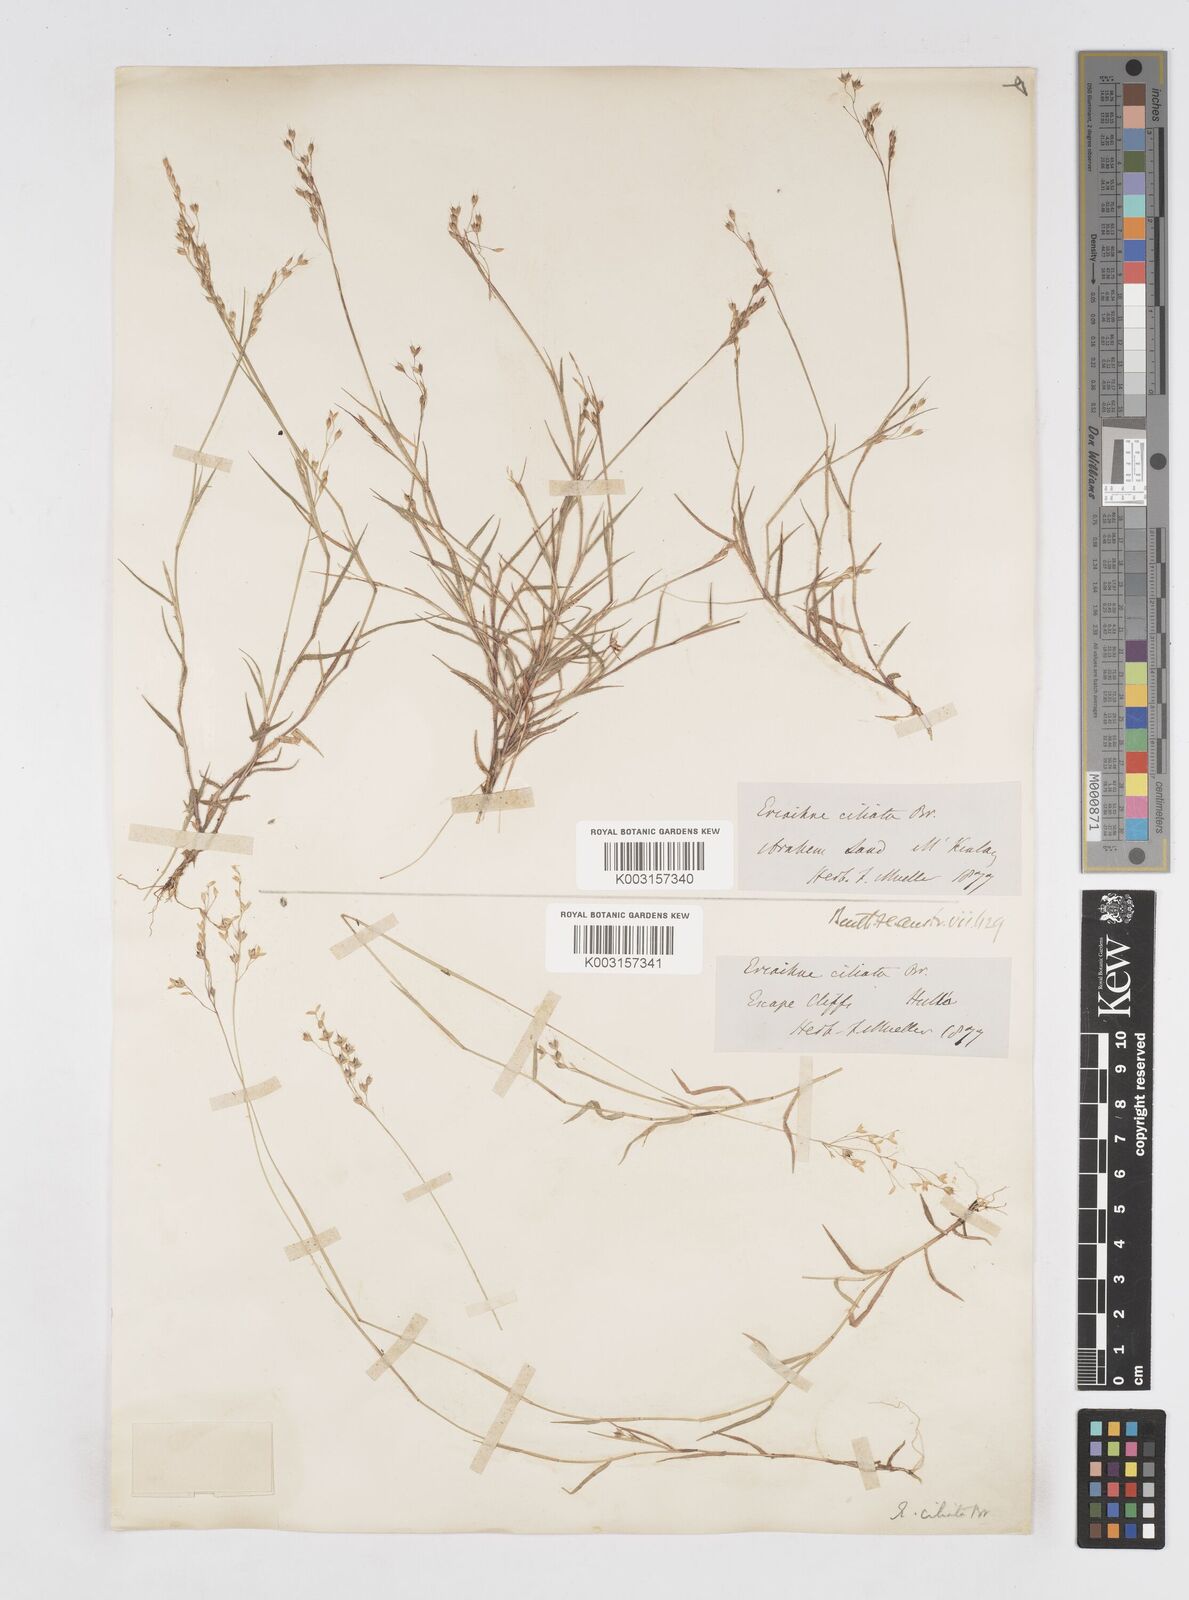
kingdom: Plantae
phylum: Tracheophyta
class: Liliopsida
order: Poales
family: Poaceae
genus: Eriachne
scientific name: Eriachne ciliata
